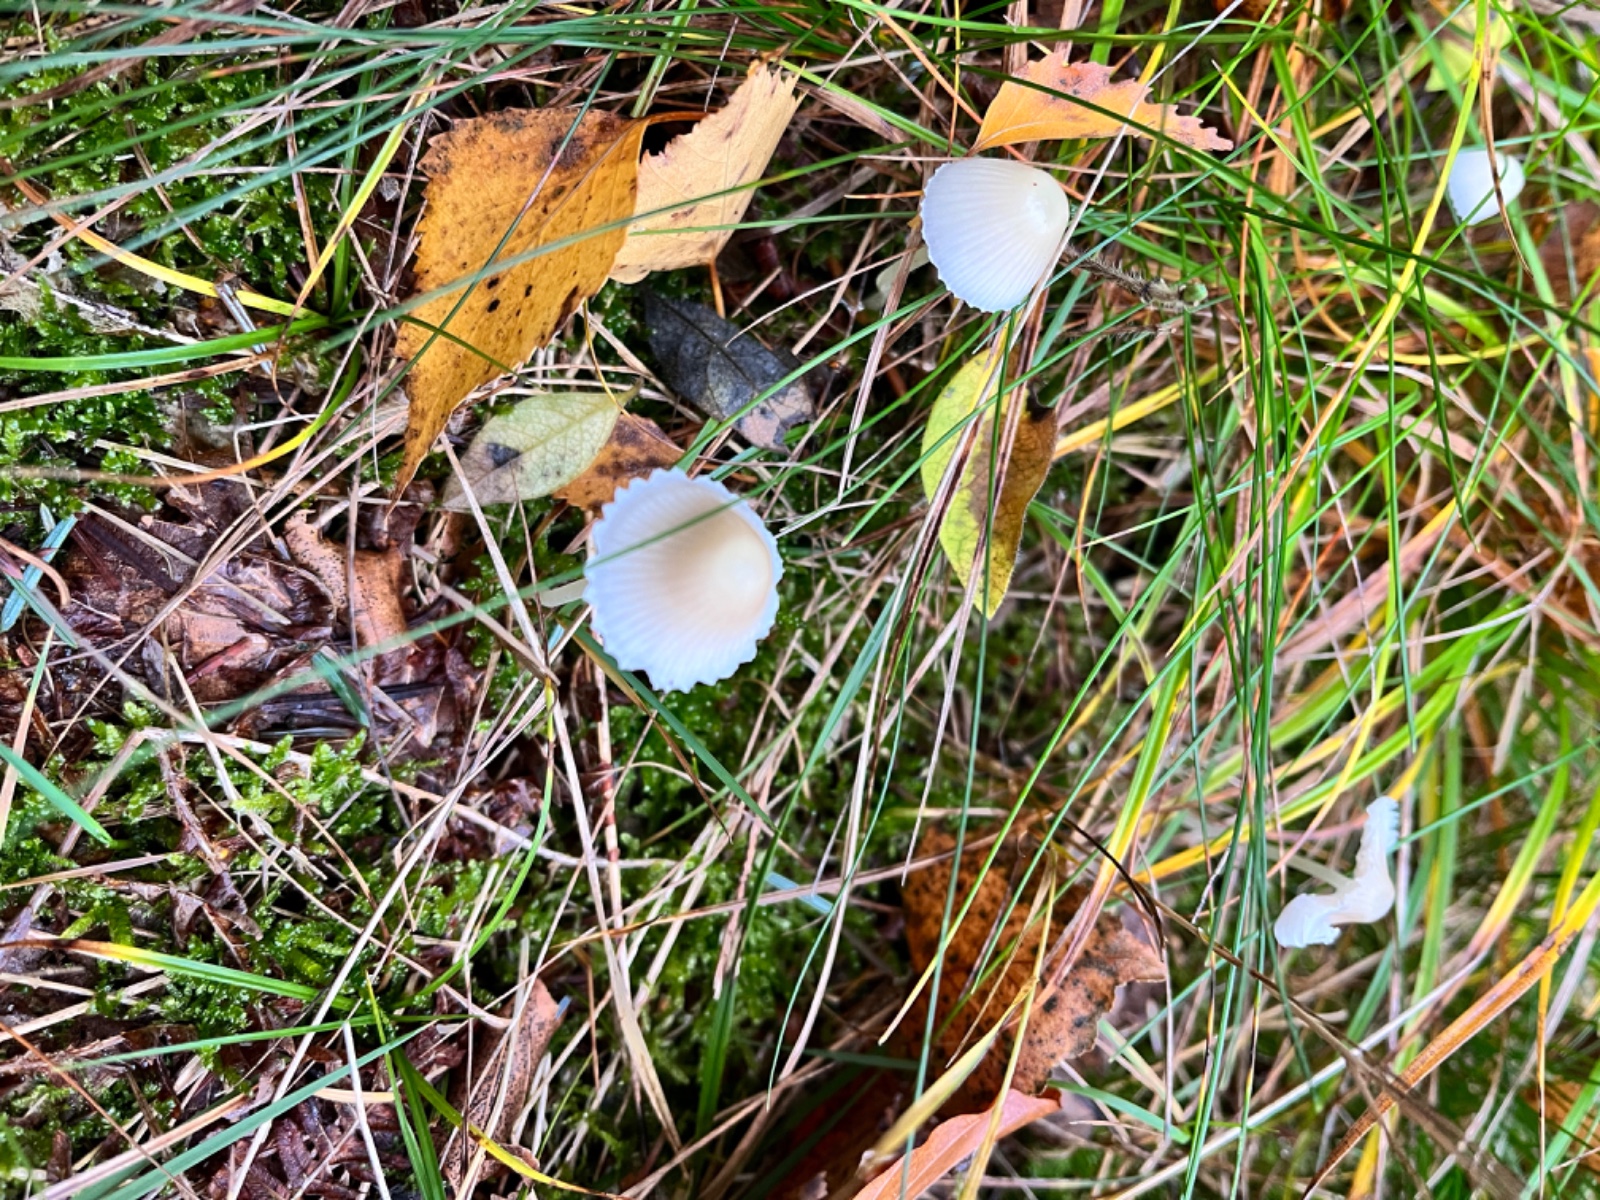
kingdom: Fungi
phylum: Basidiomycota
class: Agaricomycetes
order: Agaricales
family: Mycenaceae
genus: Mycena
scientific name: Mycena epipterygia
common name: gulstokket huesvamp
